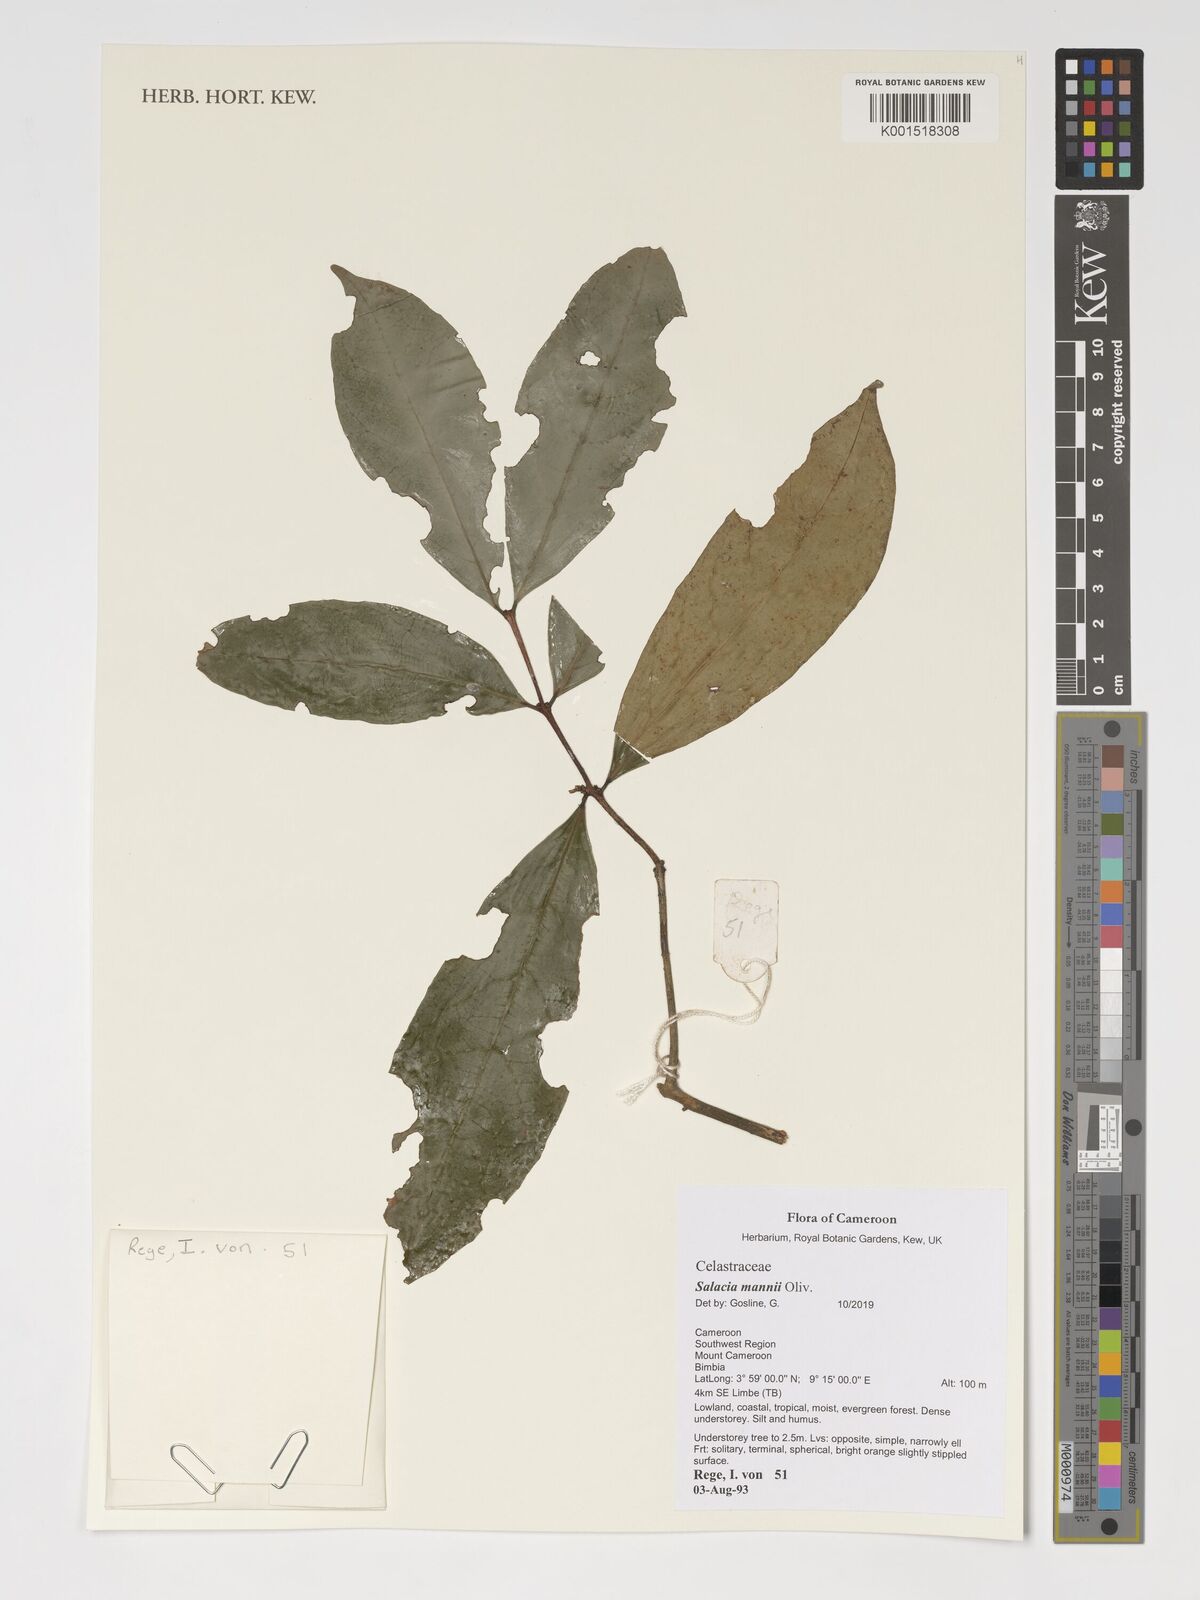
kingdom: Plantae
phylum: Tracheophyta
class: Magnoliopsida
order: Celastrales
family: Celastraceae
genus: Salacia
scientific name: Salacia mannii
